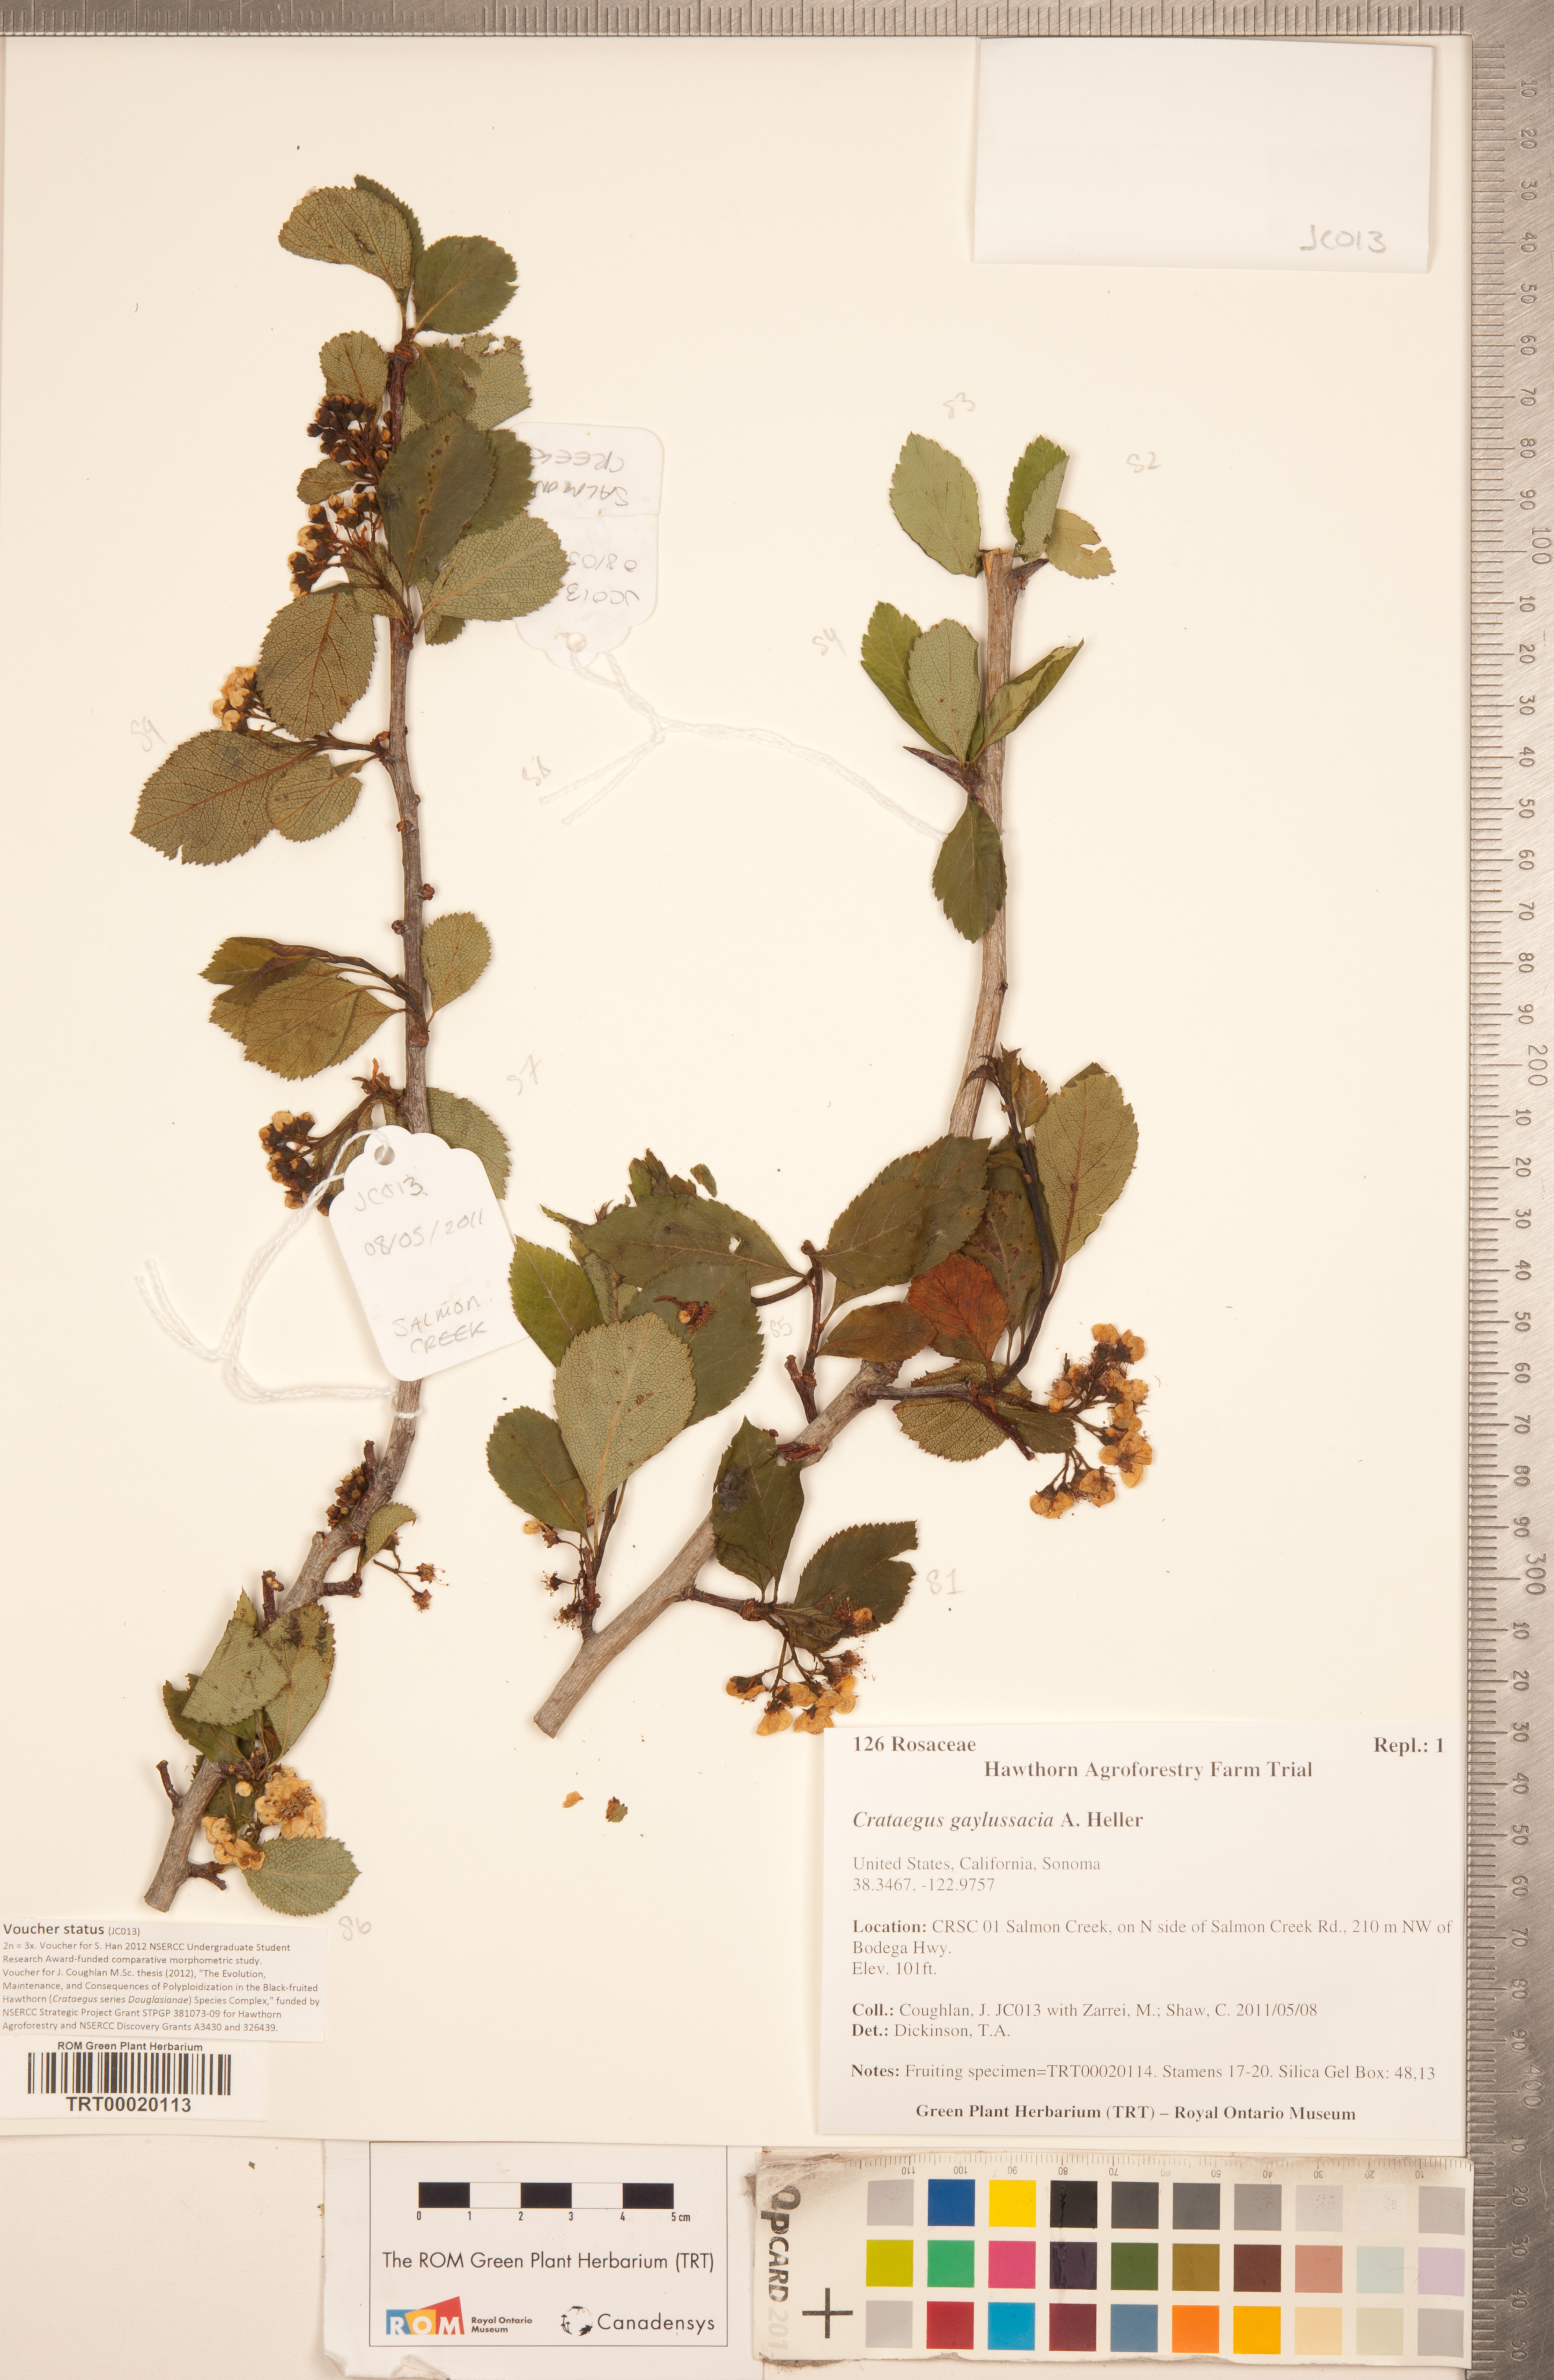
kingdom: Plantae
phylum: Tracheophyta
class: Magnoliopsida
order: Rosales
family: Rosaceae
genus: Crataegus
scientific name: Crataegus gaylussacia
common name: Huckleberry hawthorn
